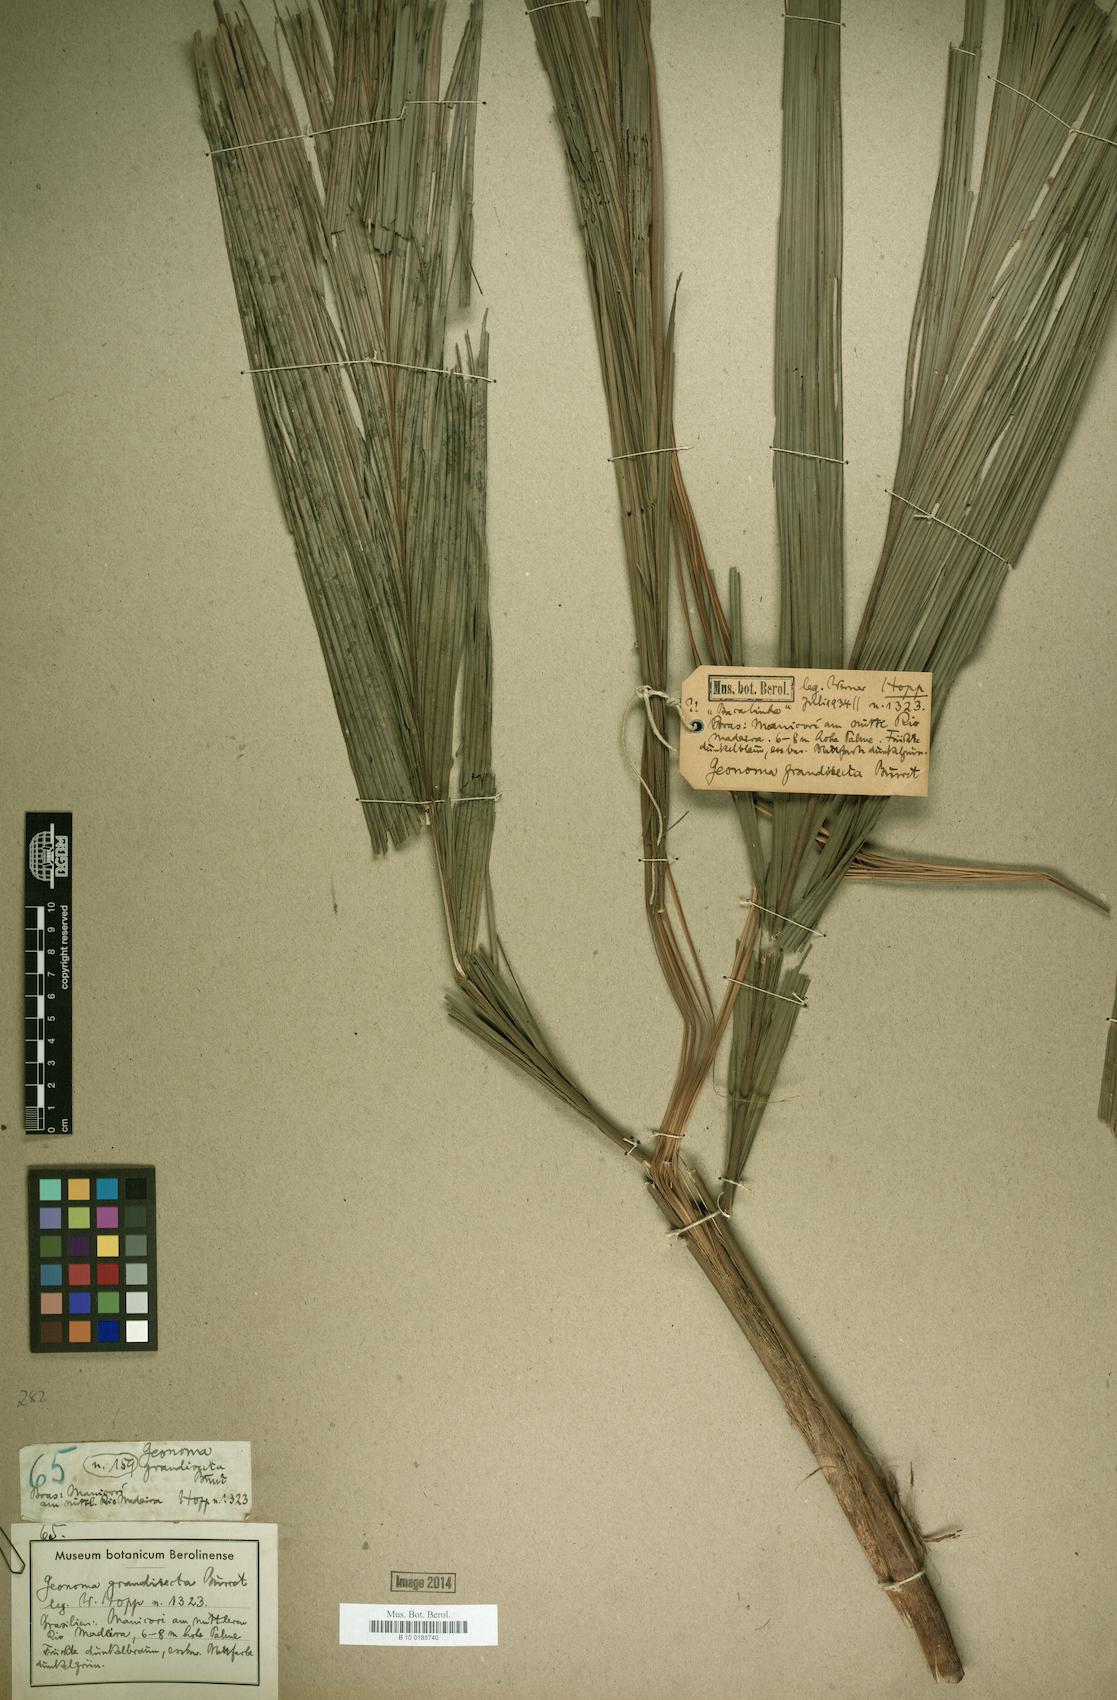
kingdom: Plantae
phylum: Tracheophyta
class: Liliopsida
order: Arecales
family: Arecaceae
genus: Geonoma
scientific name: Geonoma maxima
